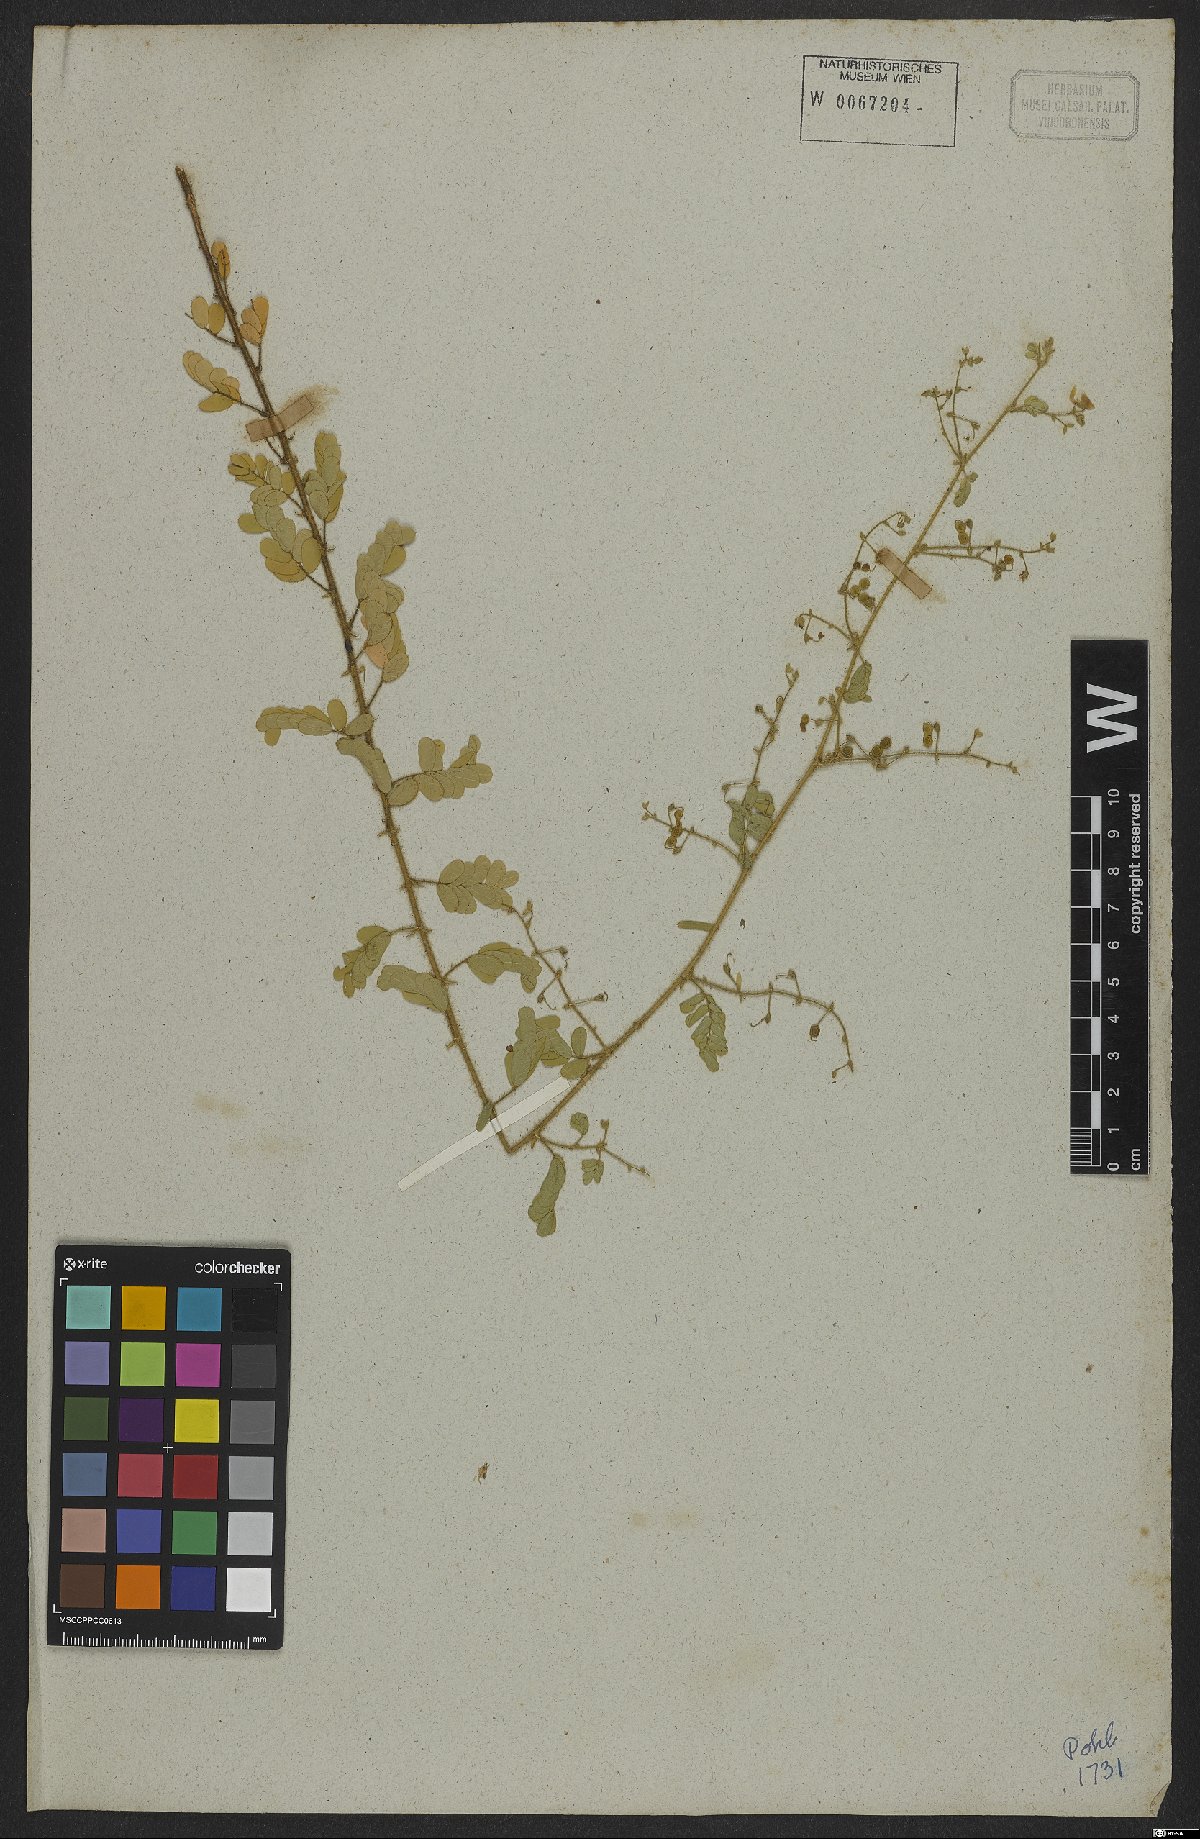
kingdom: Plantae
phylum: Tracheophyta
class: Magnoliopsida
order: Fabales
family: Fabaceae
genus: Ctenodon
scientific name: Ctenodon brasilianus
